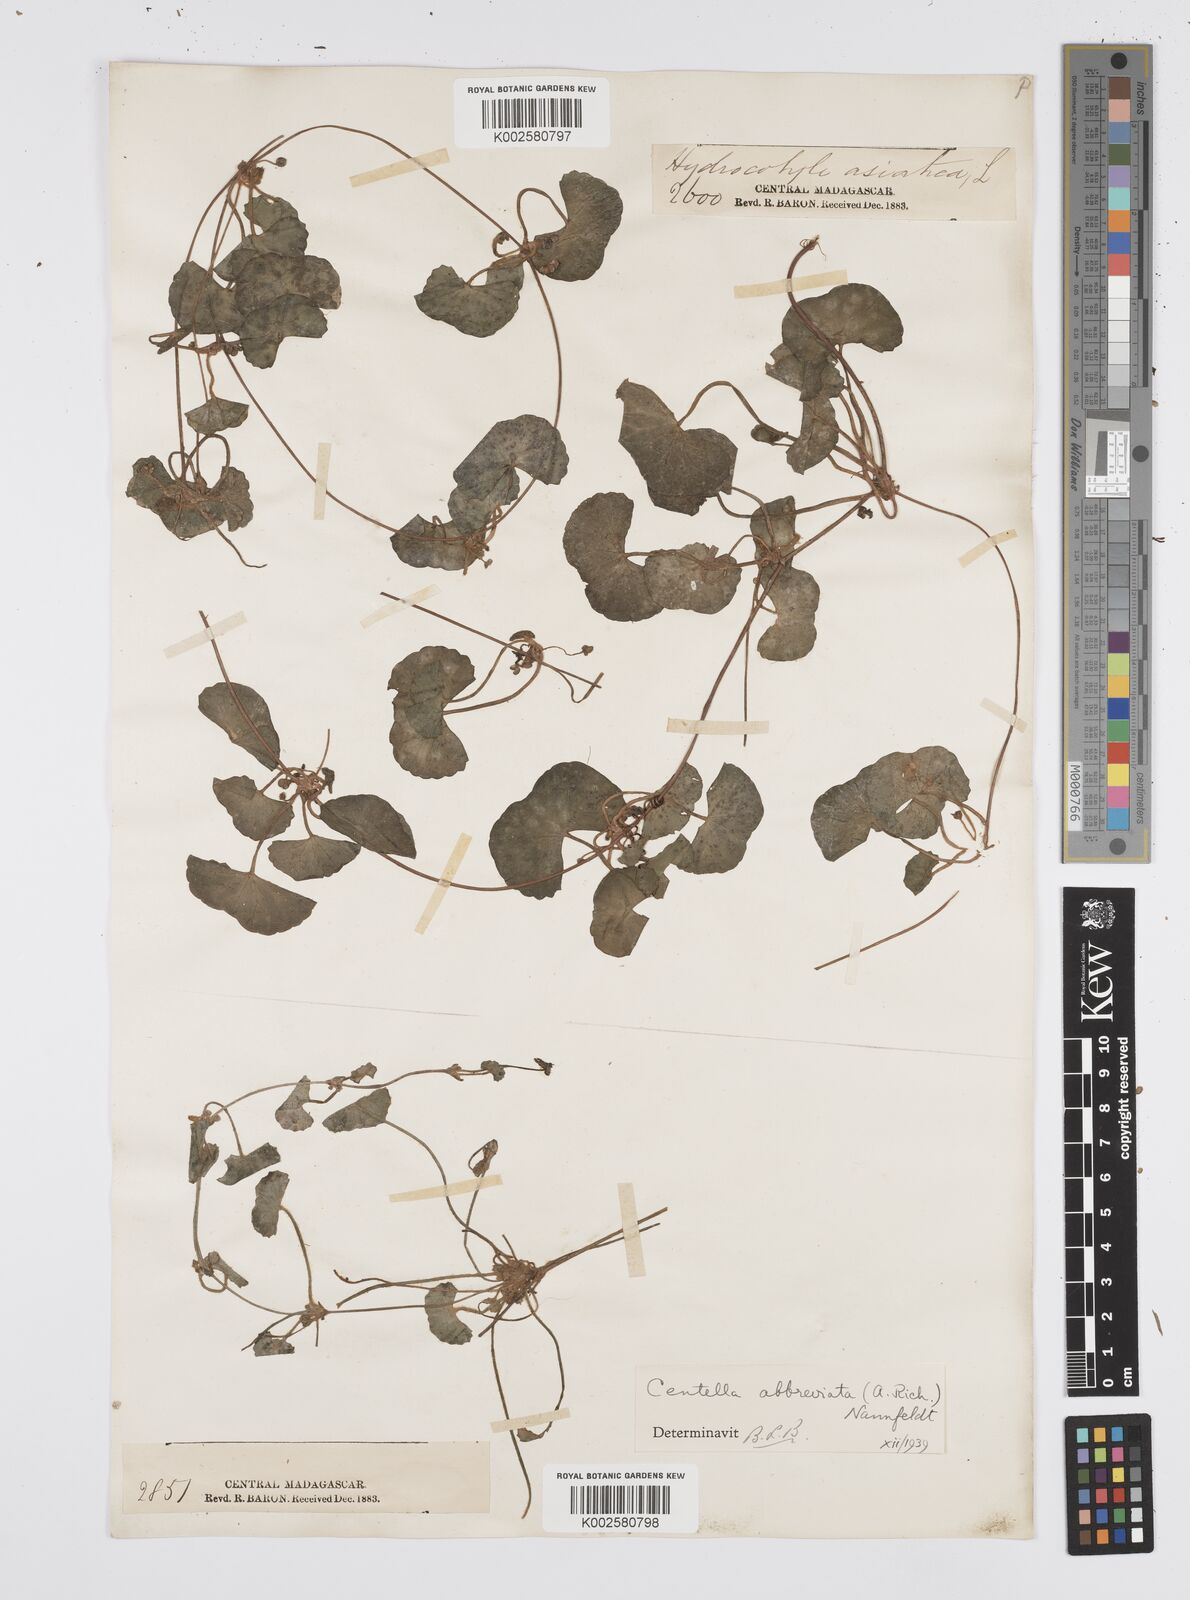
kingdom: Plantae
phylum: Tracheophyta
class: Magnoliopsida
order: Apiales
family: Apiaceae
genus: Centella
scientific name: Centella asiatica
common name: Spadeleaf
